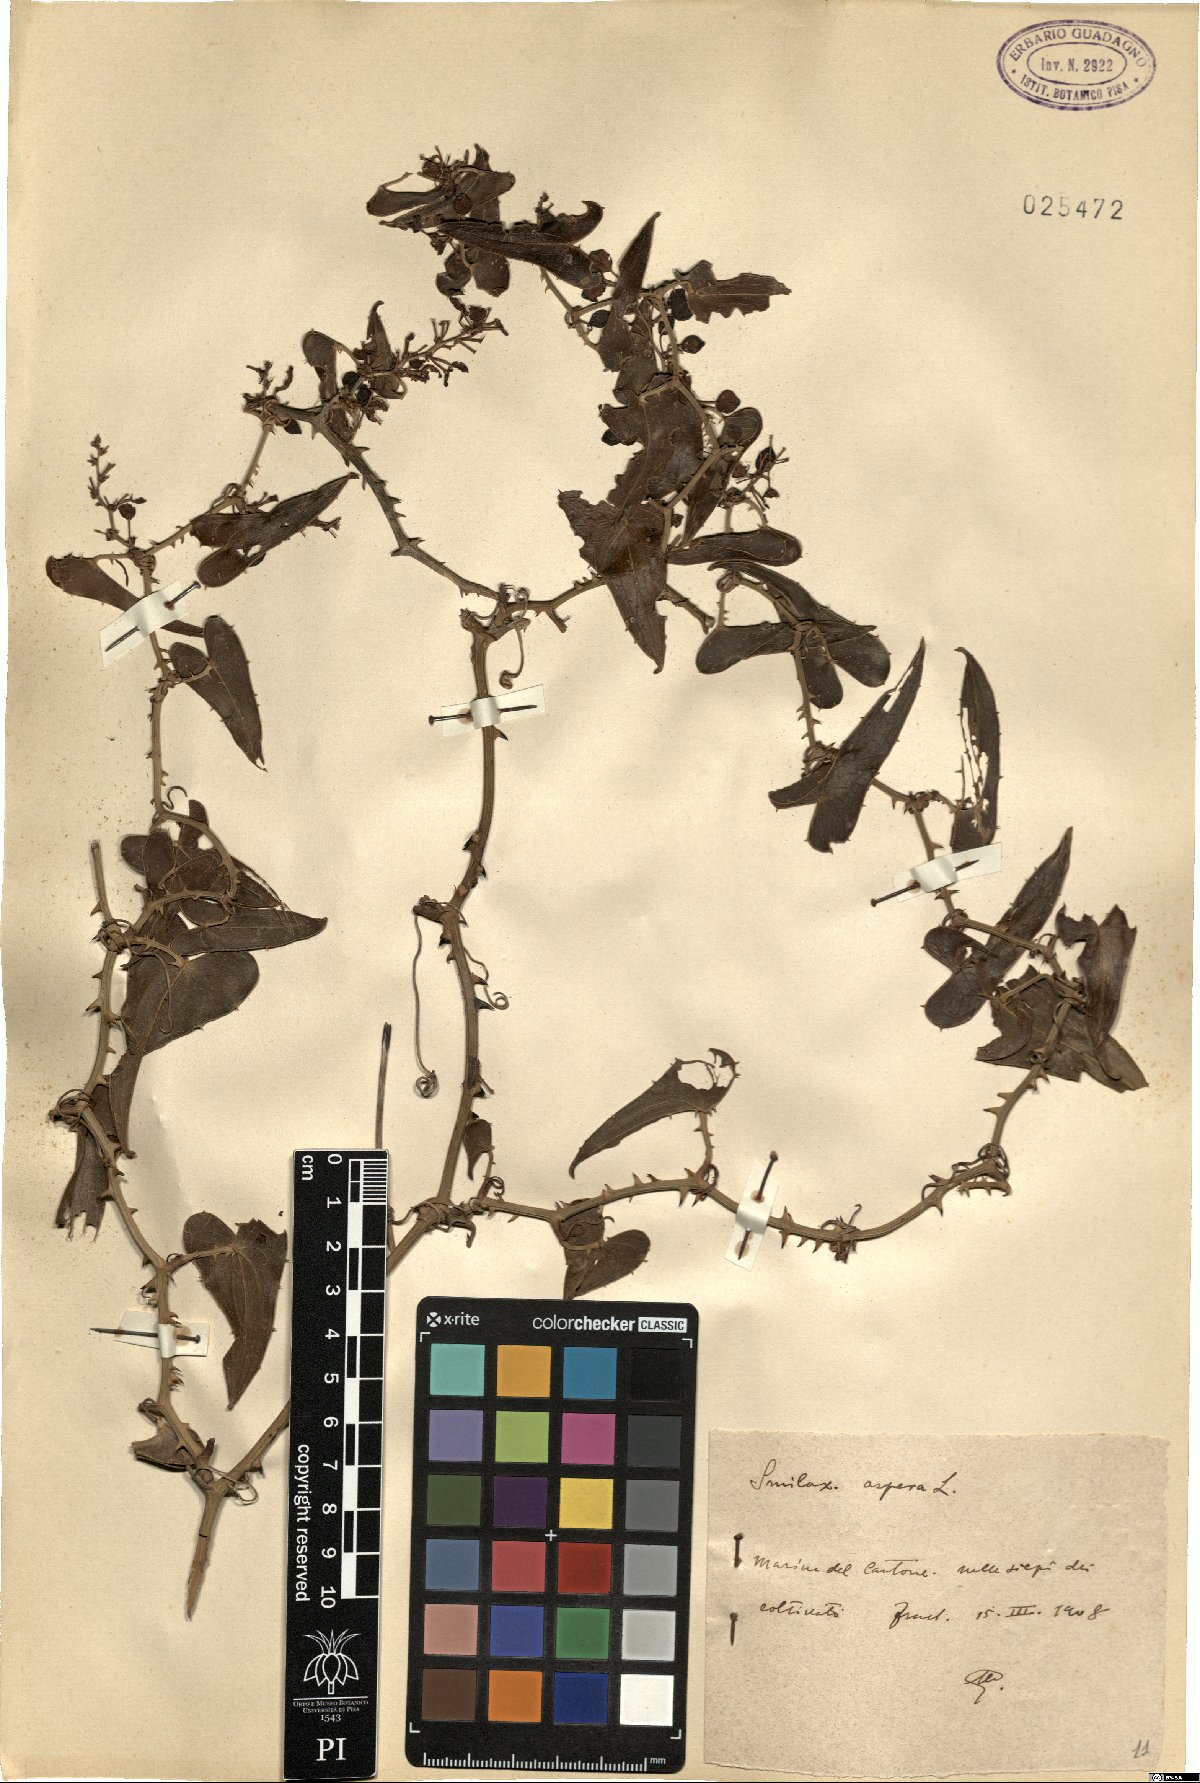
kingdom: Plantae
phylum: Tracheophyta
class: Liliopsida
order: Liliales
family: Smilacaceae
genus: Smilax
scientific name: Smilax aspera
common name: Common smilax
